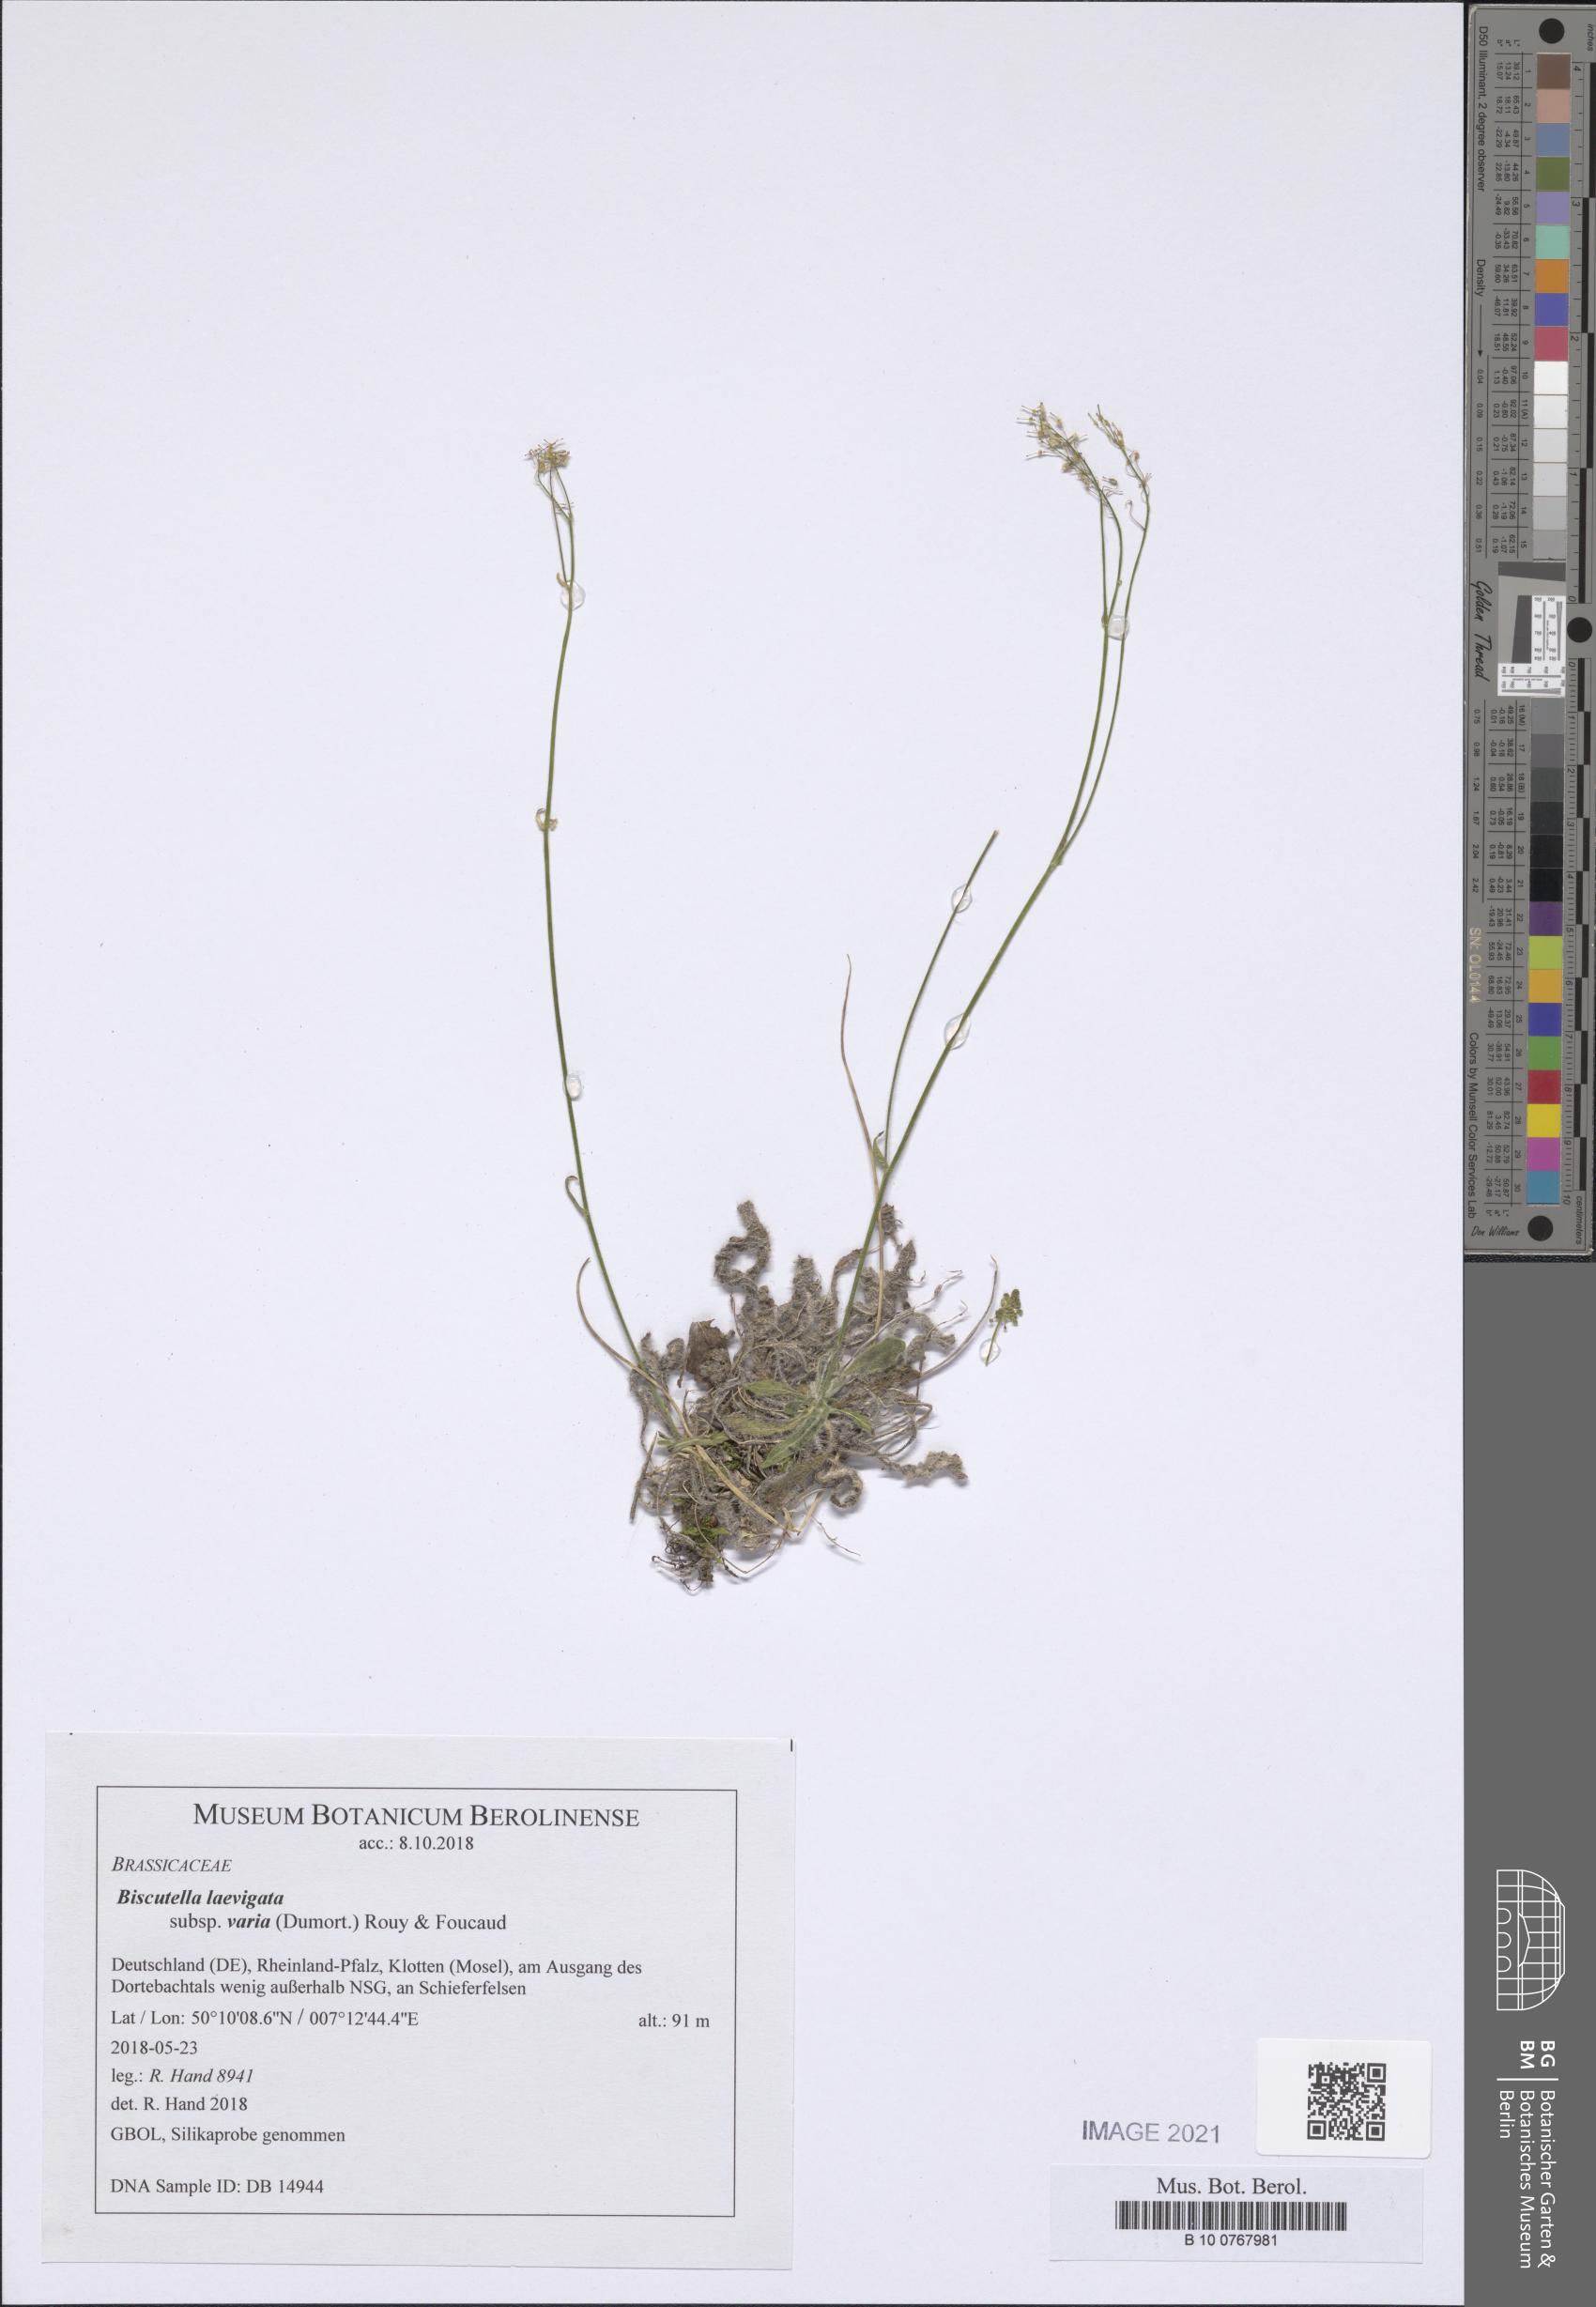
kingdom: Plantae
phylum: Tracheophyta
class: Magnoliopsida
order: Brassicales
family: Brassicaceae
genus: Biscutella
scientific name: Biscutella laevigata
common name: Buckler mustard
